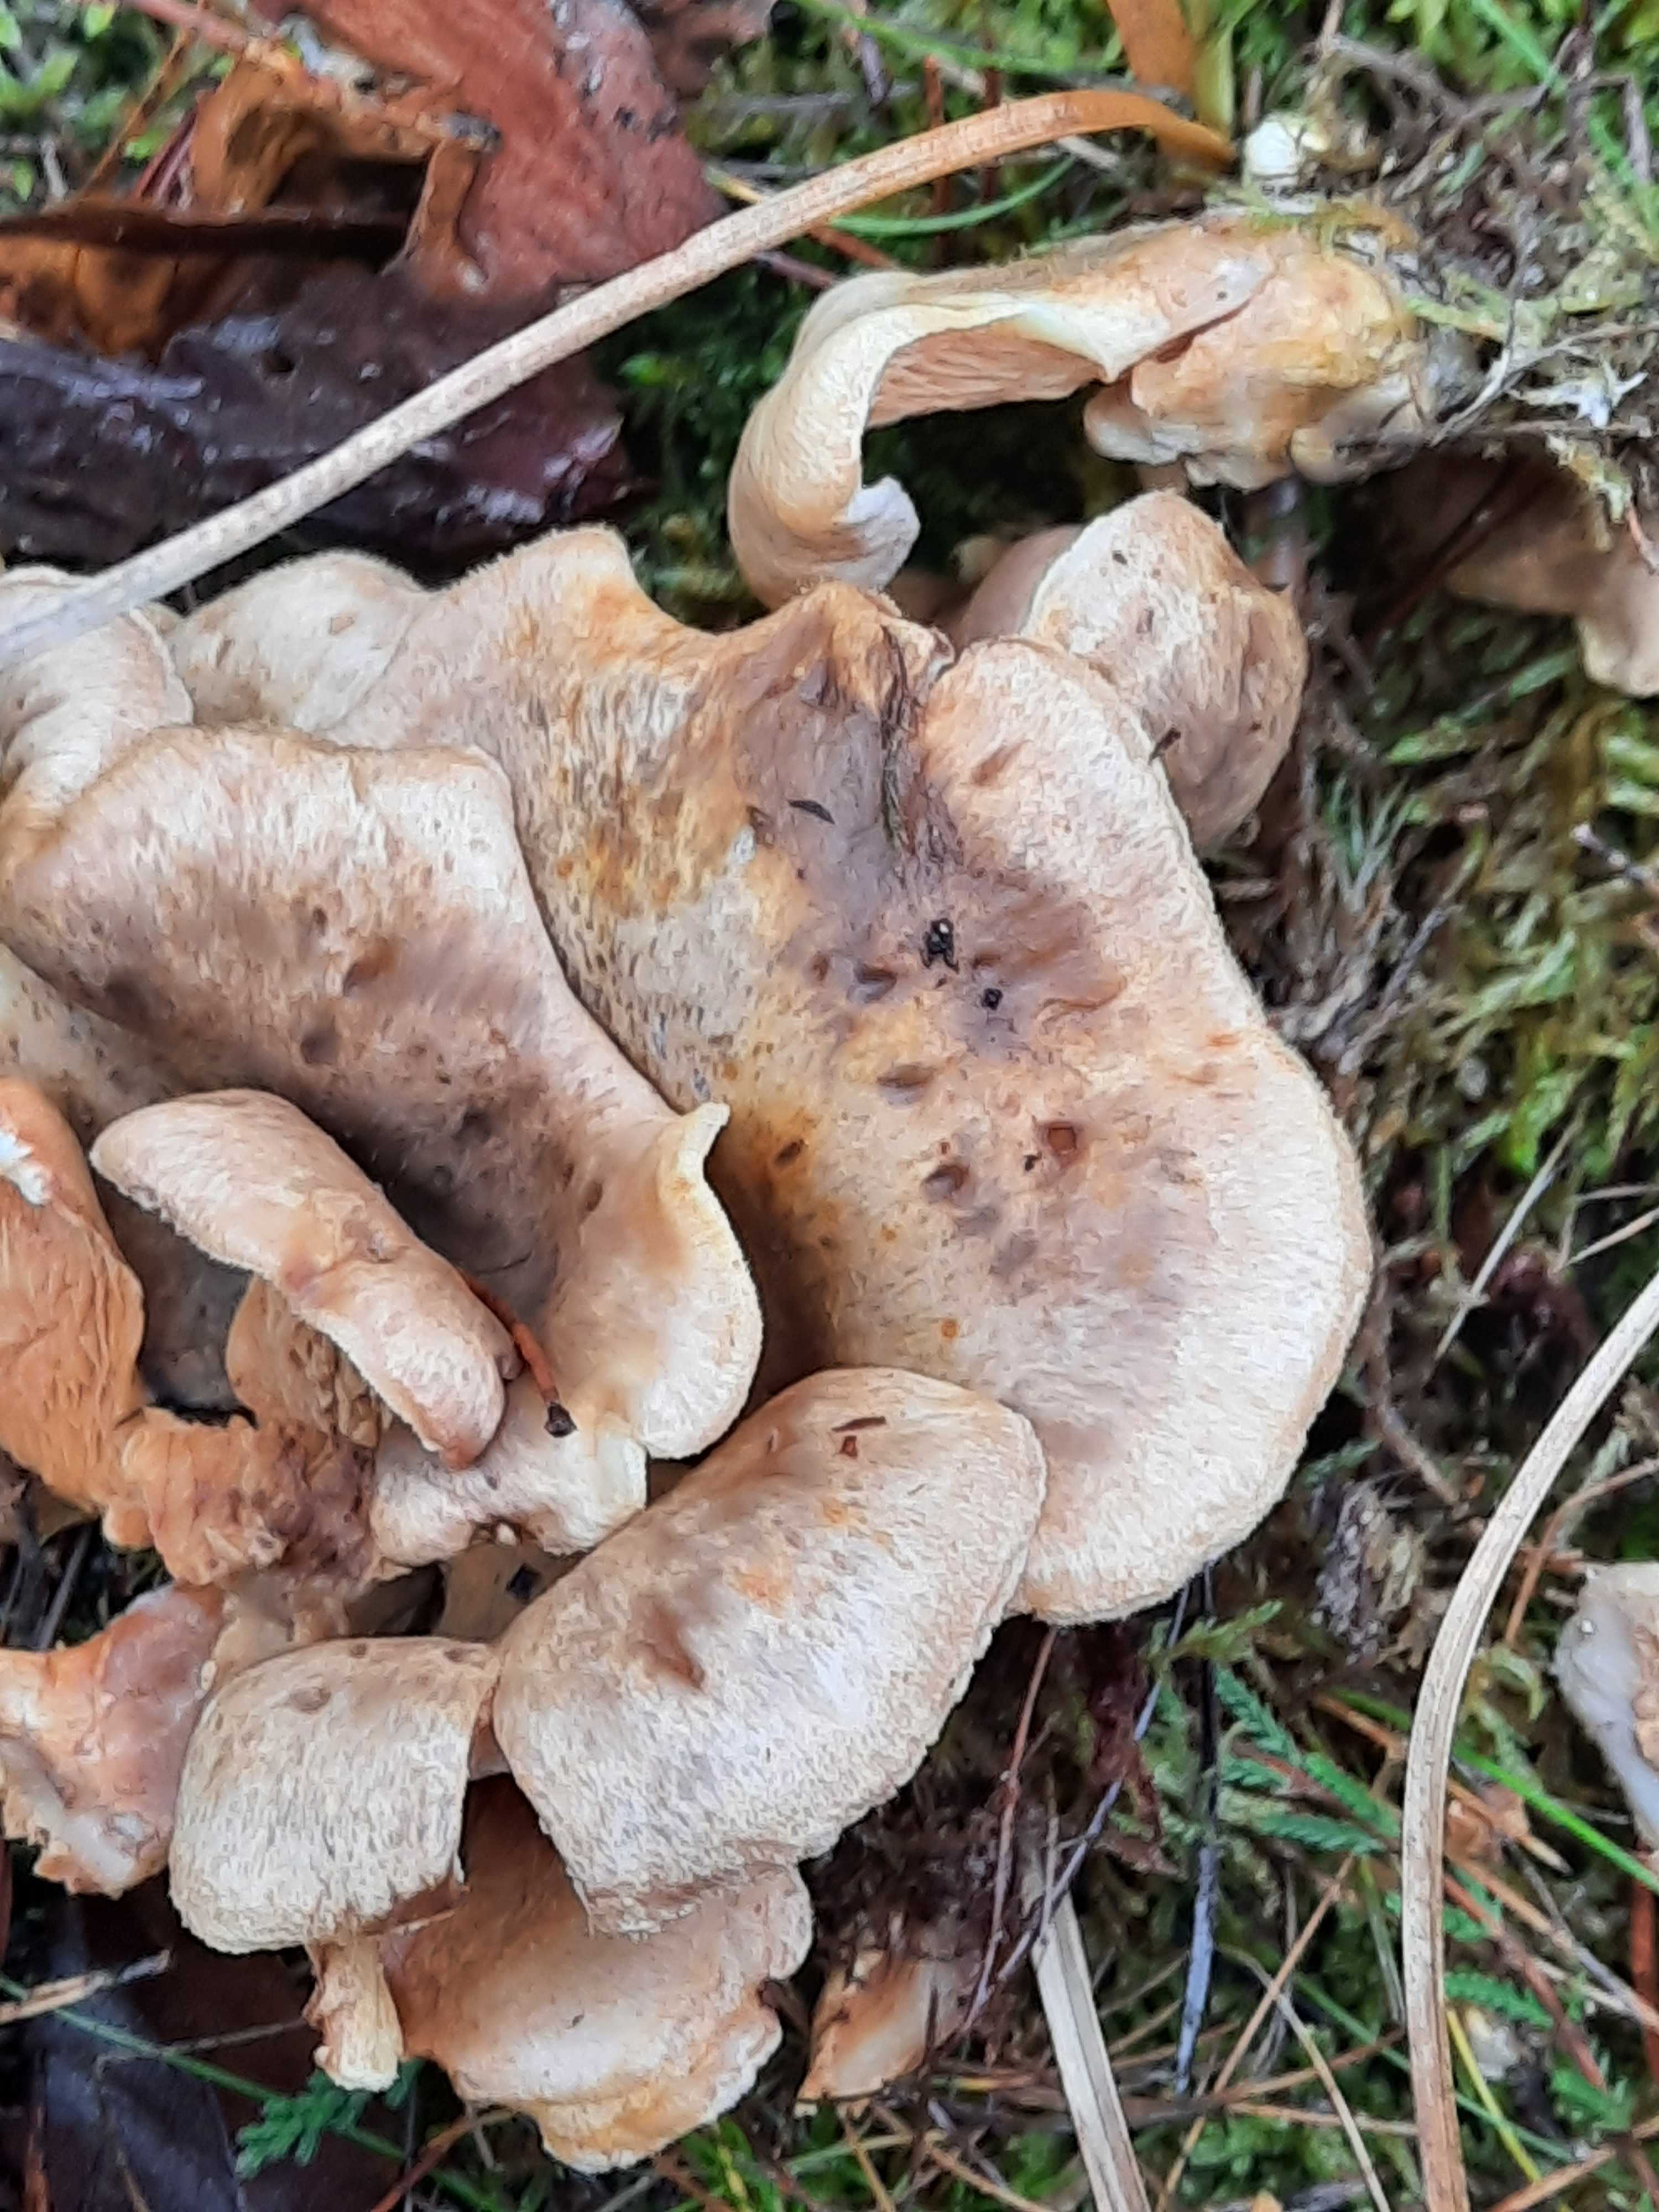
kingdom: Fungi
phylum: Basidiomycota
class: Agaricomycetes
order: Boletales
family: Tapinellaceae
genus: Tapinella
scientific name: Tapinella panuoides
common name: tømmer-viftesvamp
